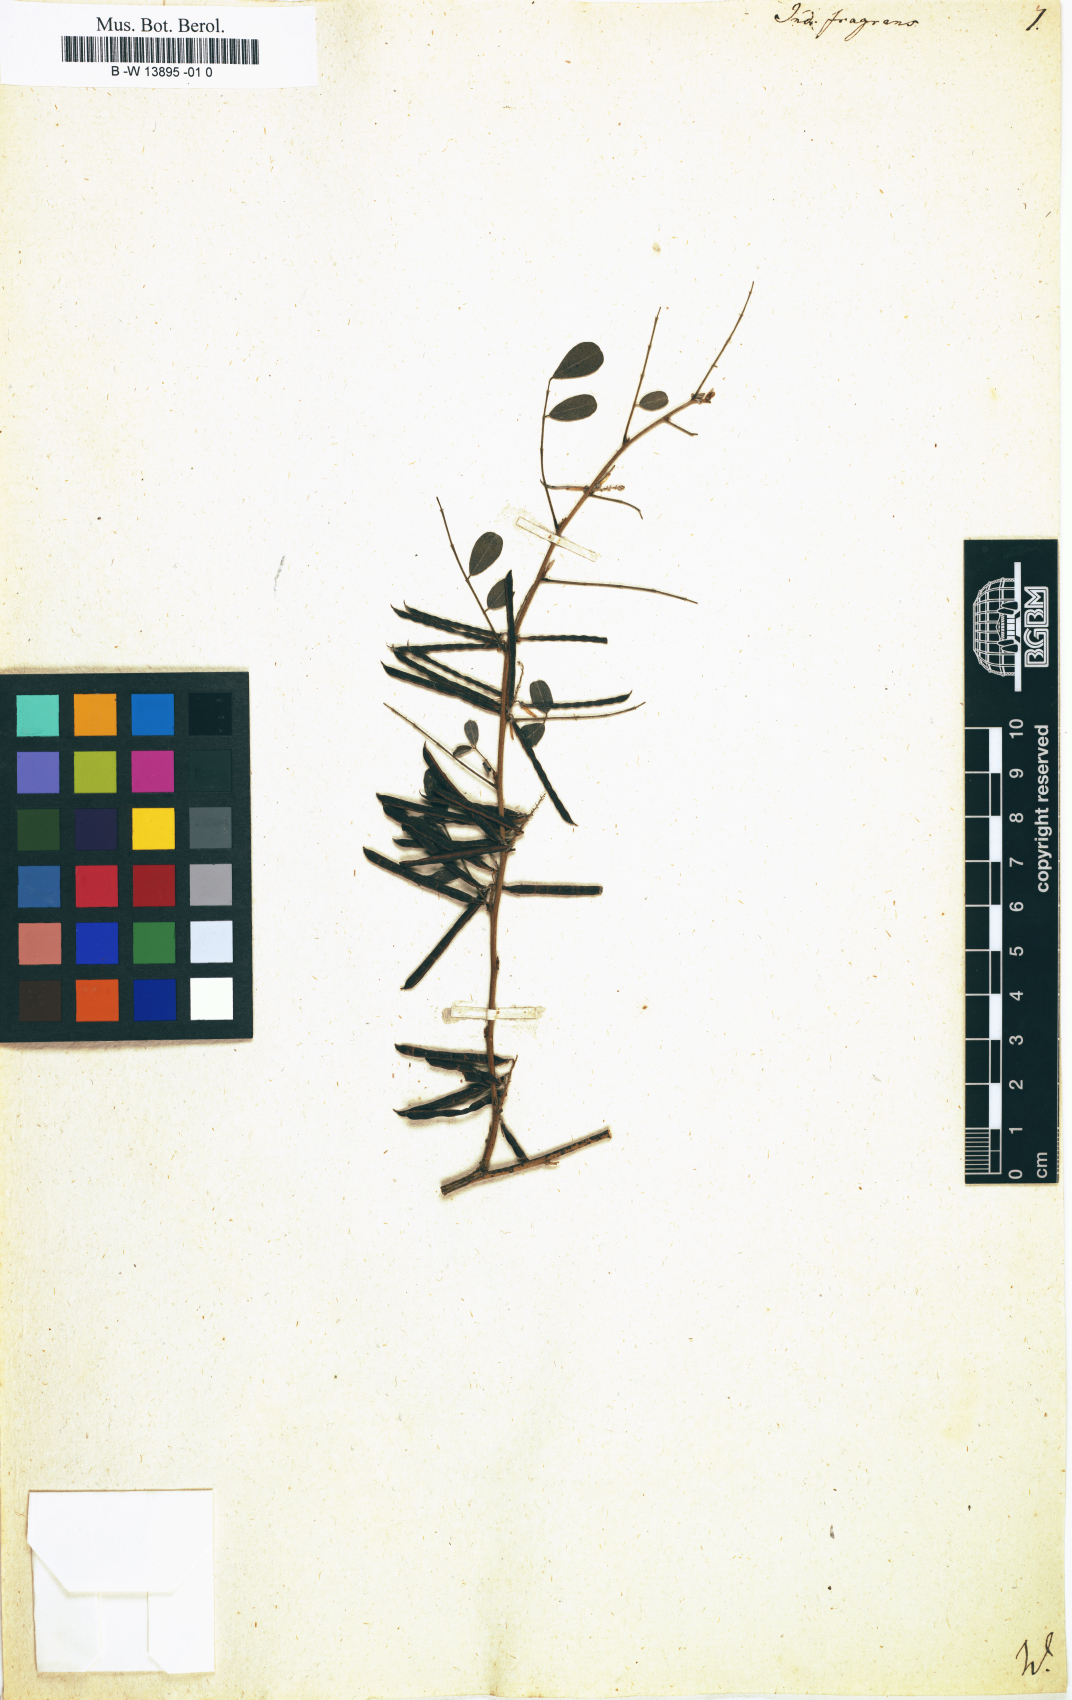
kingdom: Plantae
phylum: Tracheophyta
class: Magnoliopsida
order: Fabales
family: Fabaceae
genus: Indigofera
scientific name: Indigofera glabra
